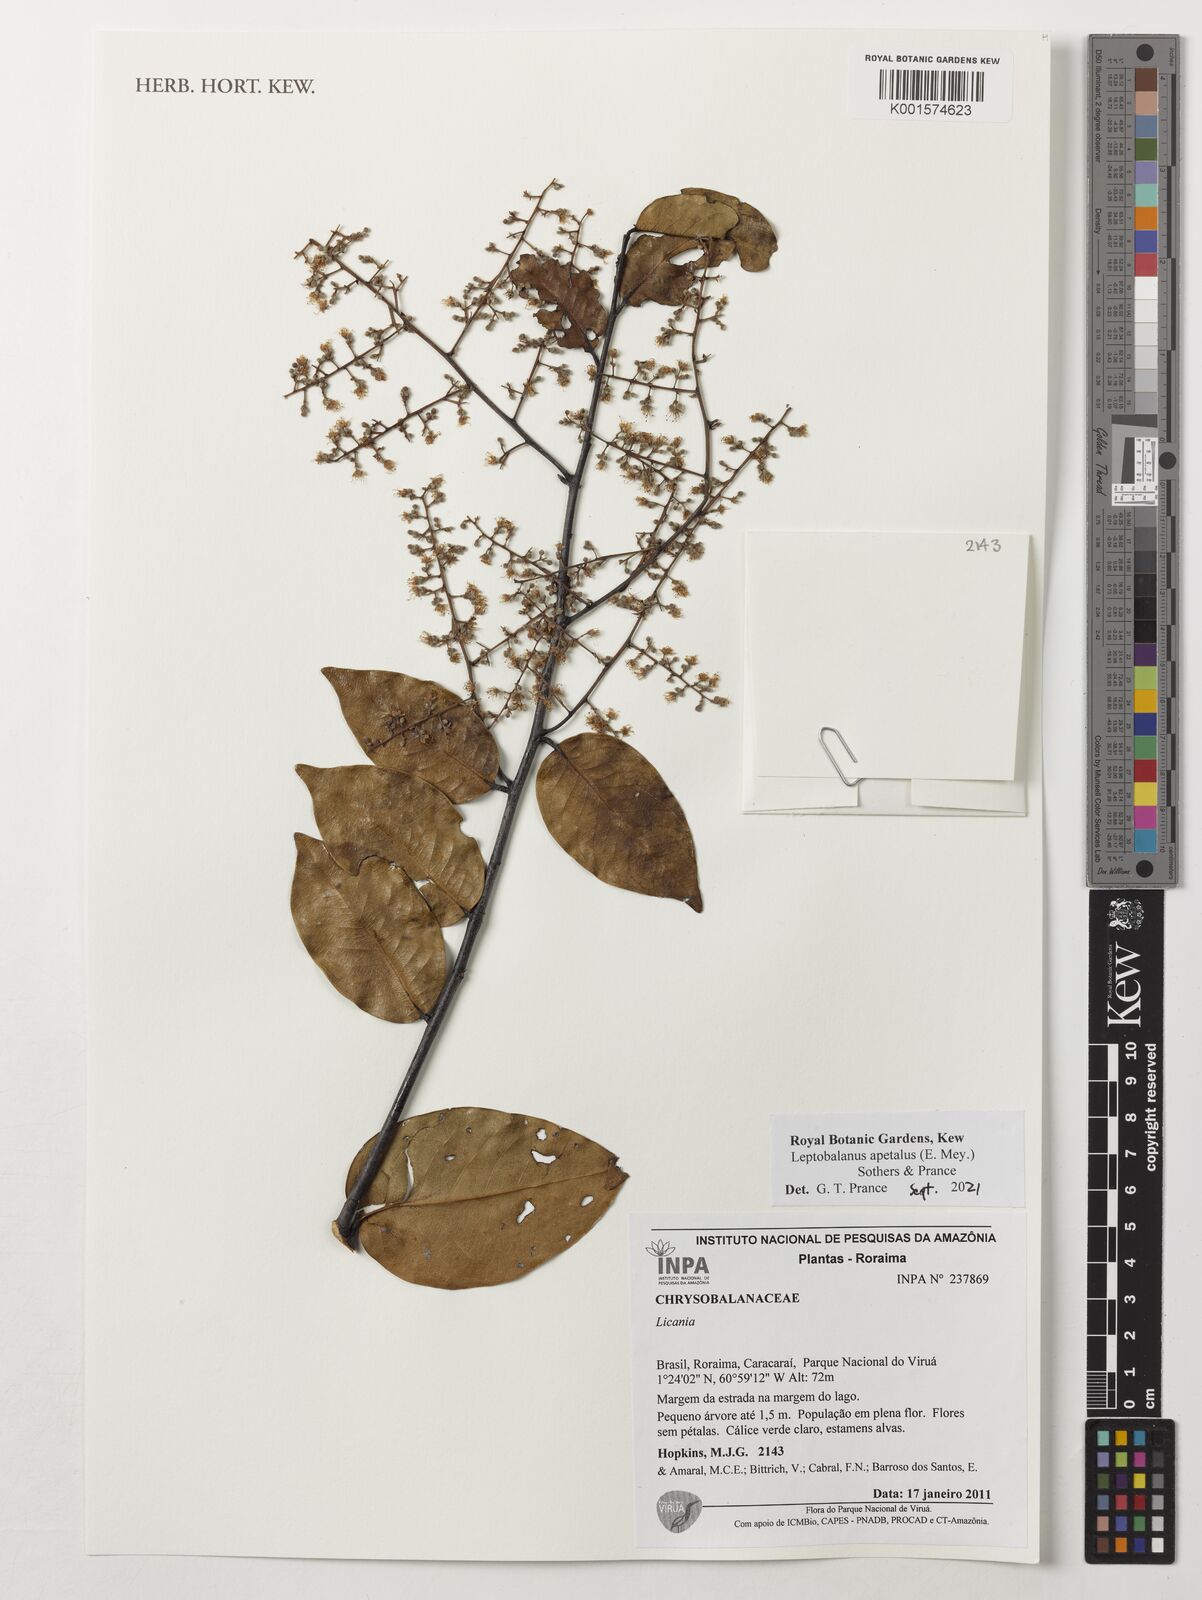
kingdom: Plantae
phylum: Tracheophyta
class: Magnoliopsida
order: Malpighiales
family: Chrysobalanaceae
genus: Leptobalanus
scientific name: Leptobalanus apetalus
